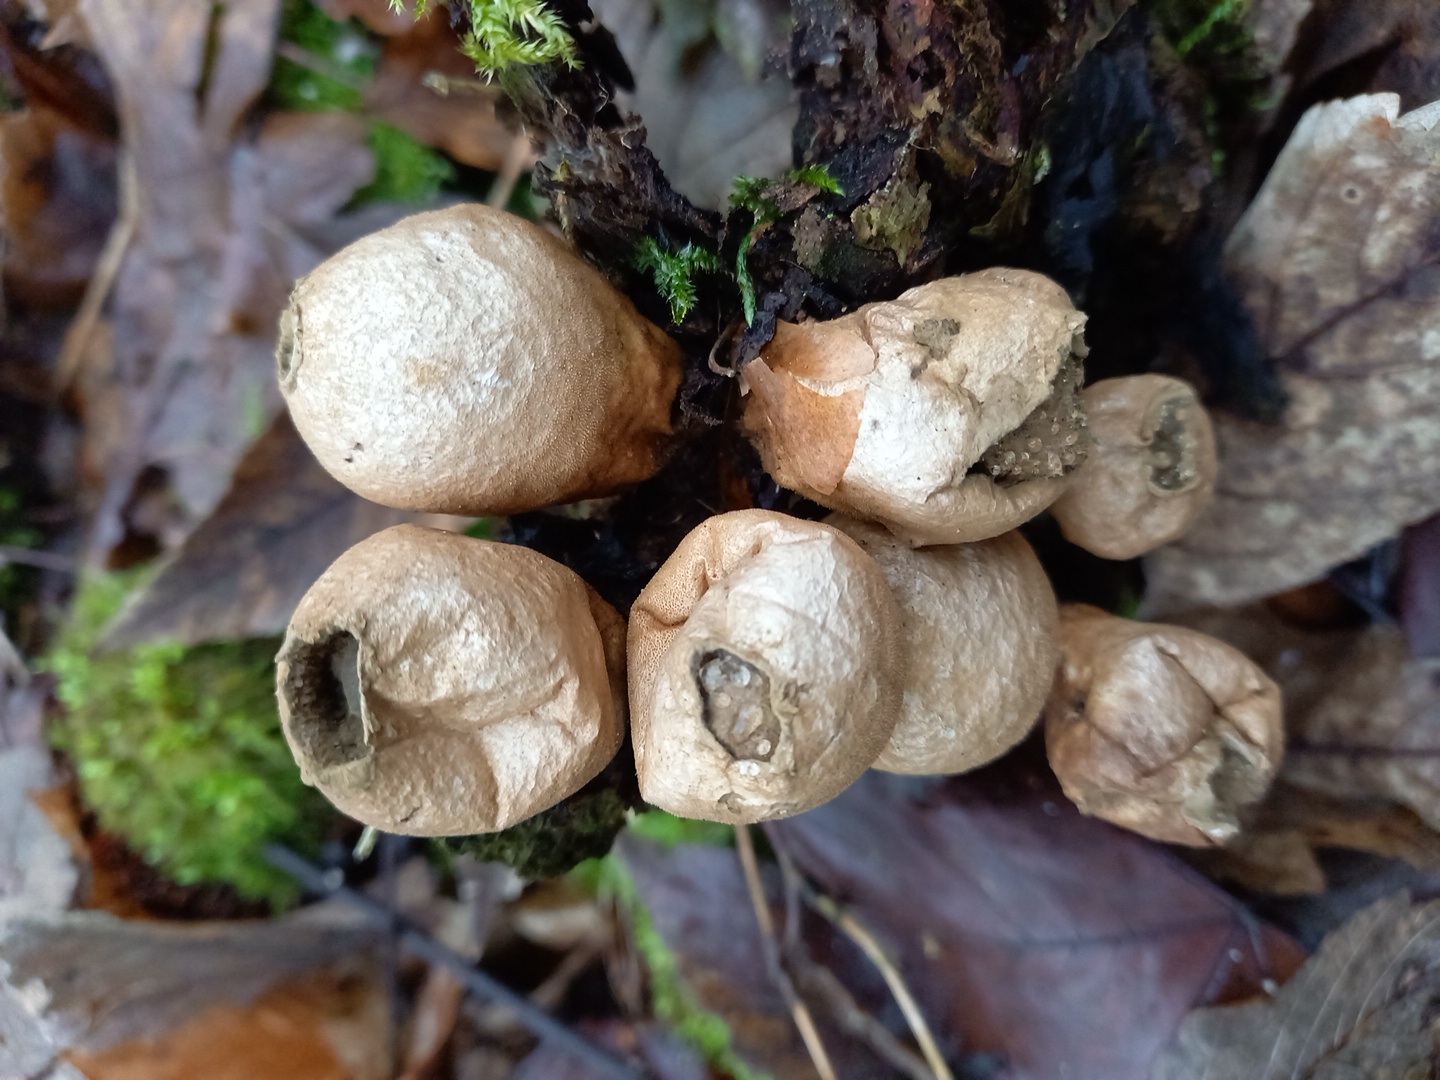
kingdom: Fungi
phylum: Basidiomycota
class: Agaricomycetes
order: Agaricales
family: Lycoperdaceae
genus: Apioperdon
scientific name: Apioperdon pyriforme
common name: pære-støvbold
